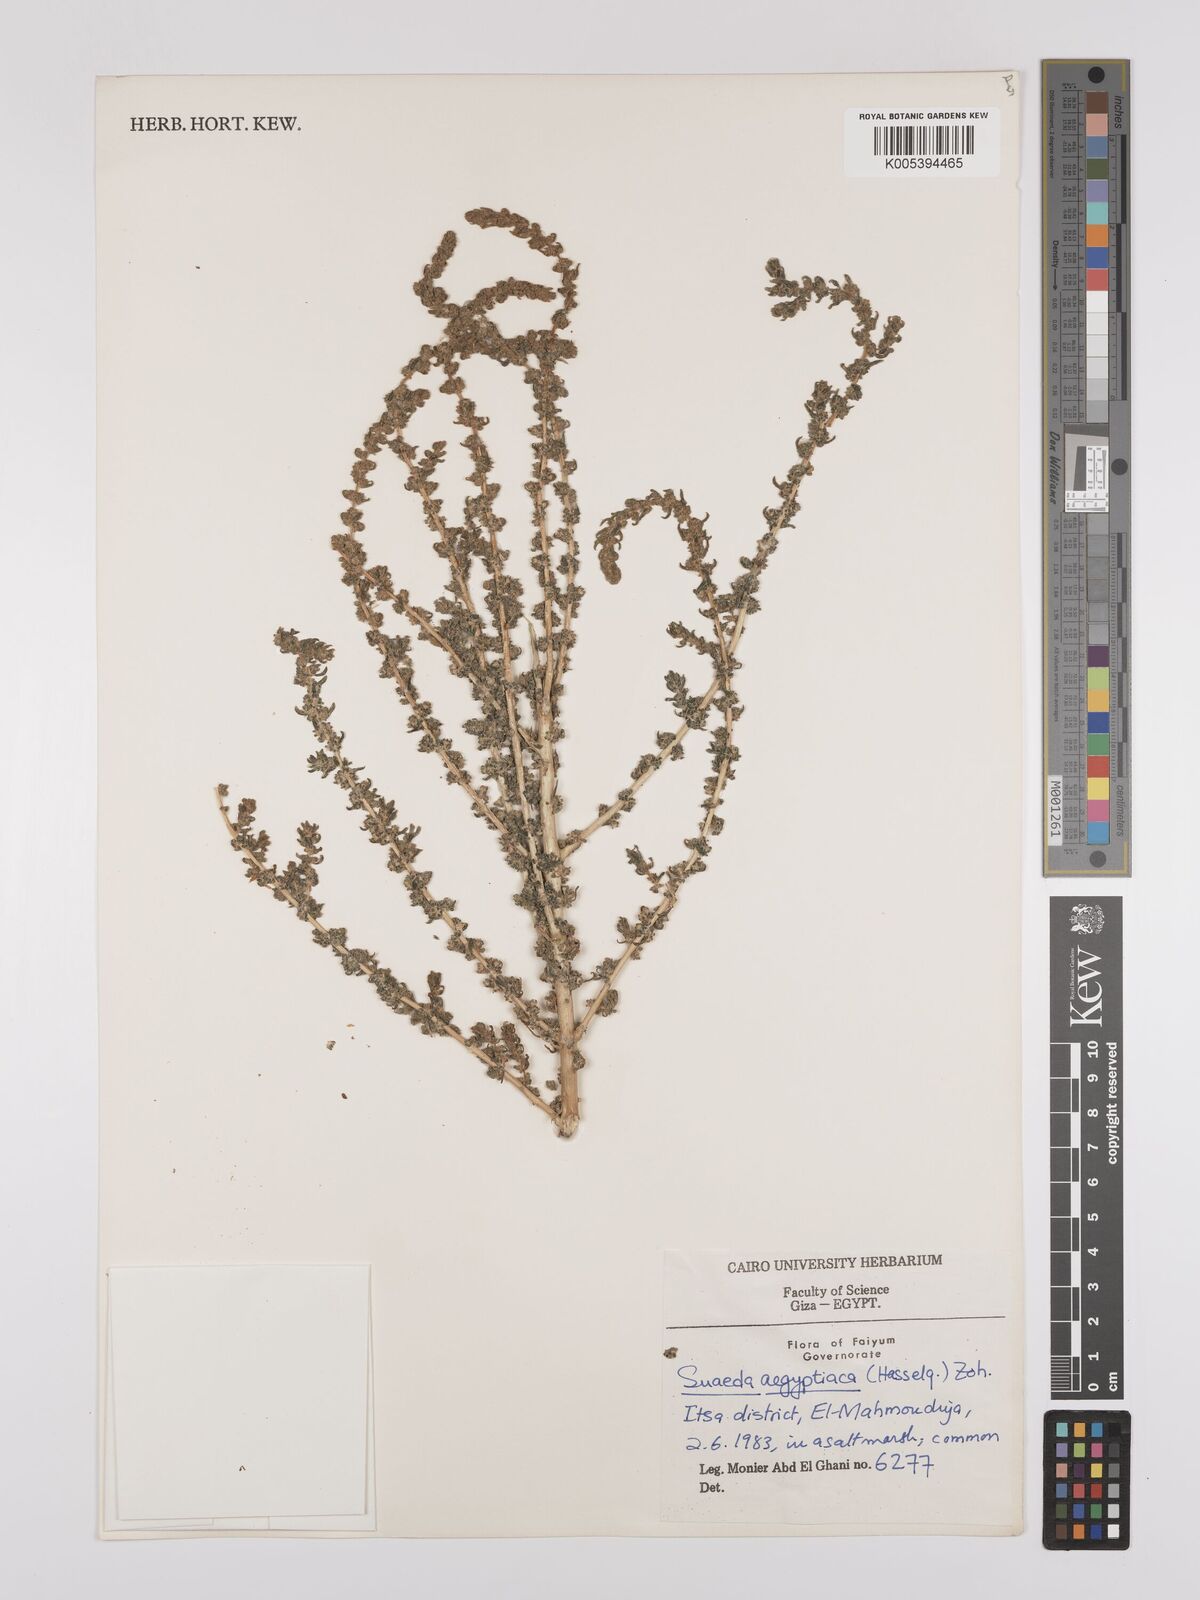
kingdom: Plantae
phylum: Tracheophyta
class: Magnoliopsida
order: Caryophyllales
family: Amaranthaceae
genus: Suaeda
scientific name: Suaeda aegyptiaca
